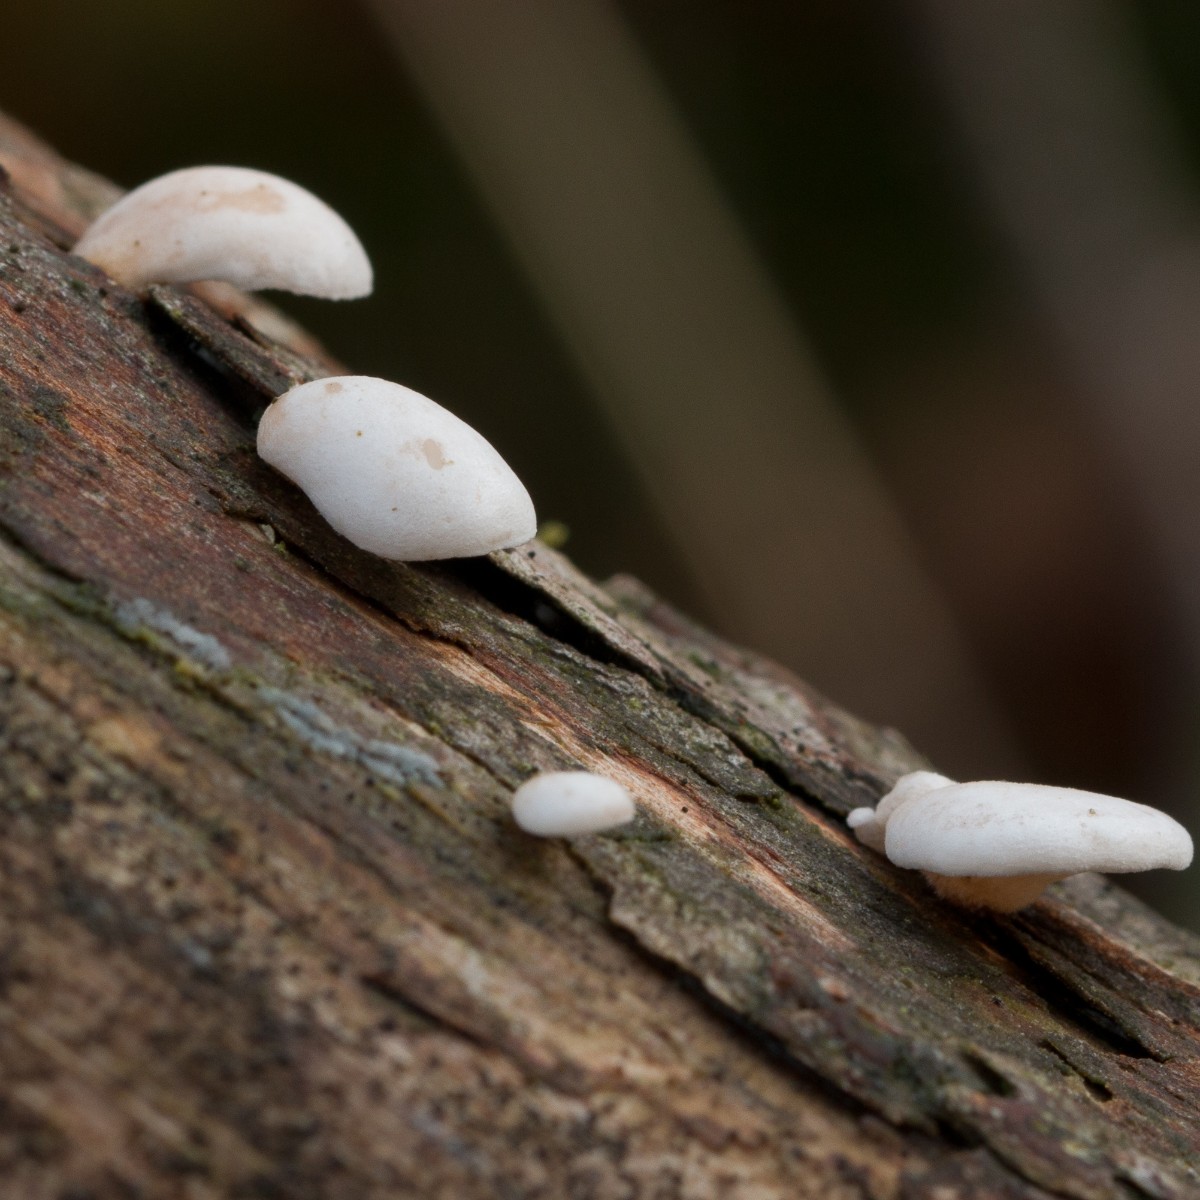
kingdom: Fungi
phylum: Basidiomycota
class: Agaricomycetes
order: Agaricales
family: Mycenaceae
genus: Panellus
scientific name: Panellus mitis
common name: mild epaulethat
